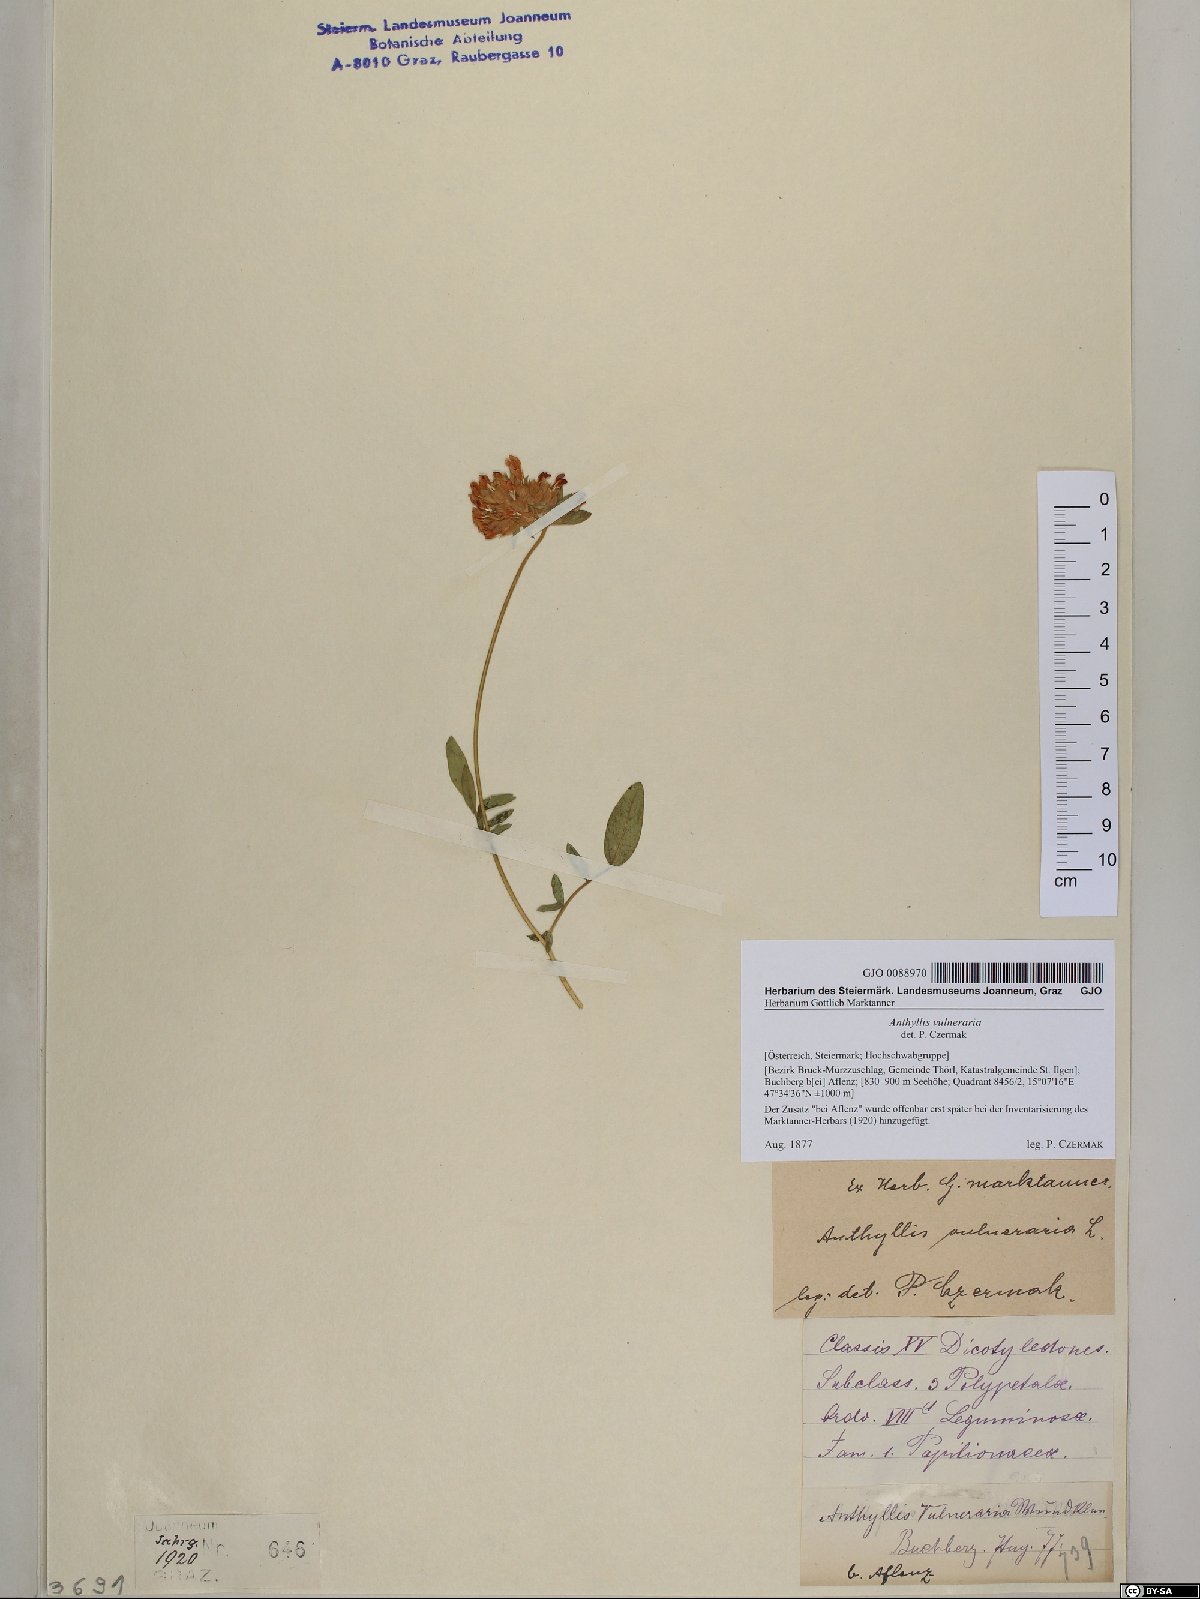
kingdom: Plantae
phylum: Tracheophyta
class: Magnoliopsida
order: Fabales
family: Fabaceae
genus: Anthyllis
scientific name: Anthyllis vulneraria
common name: Kidney vetch
